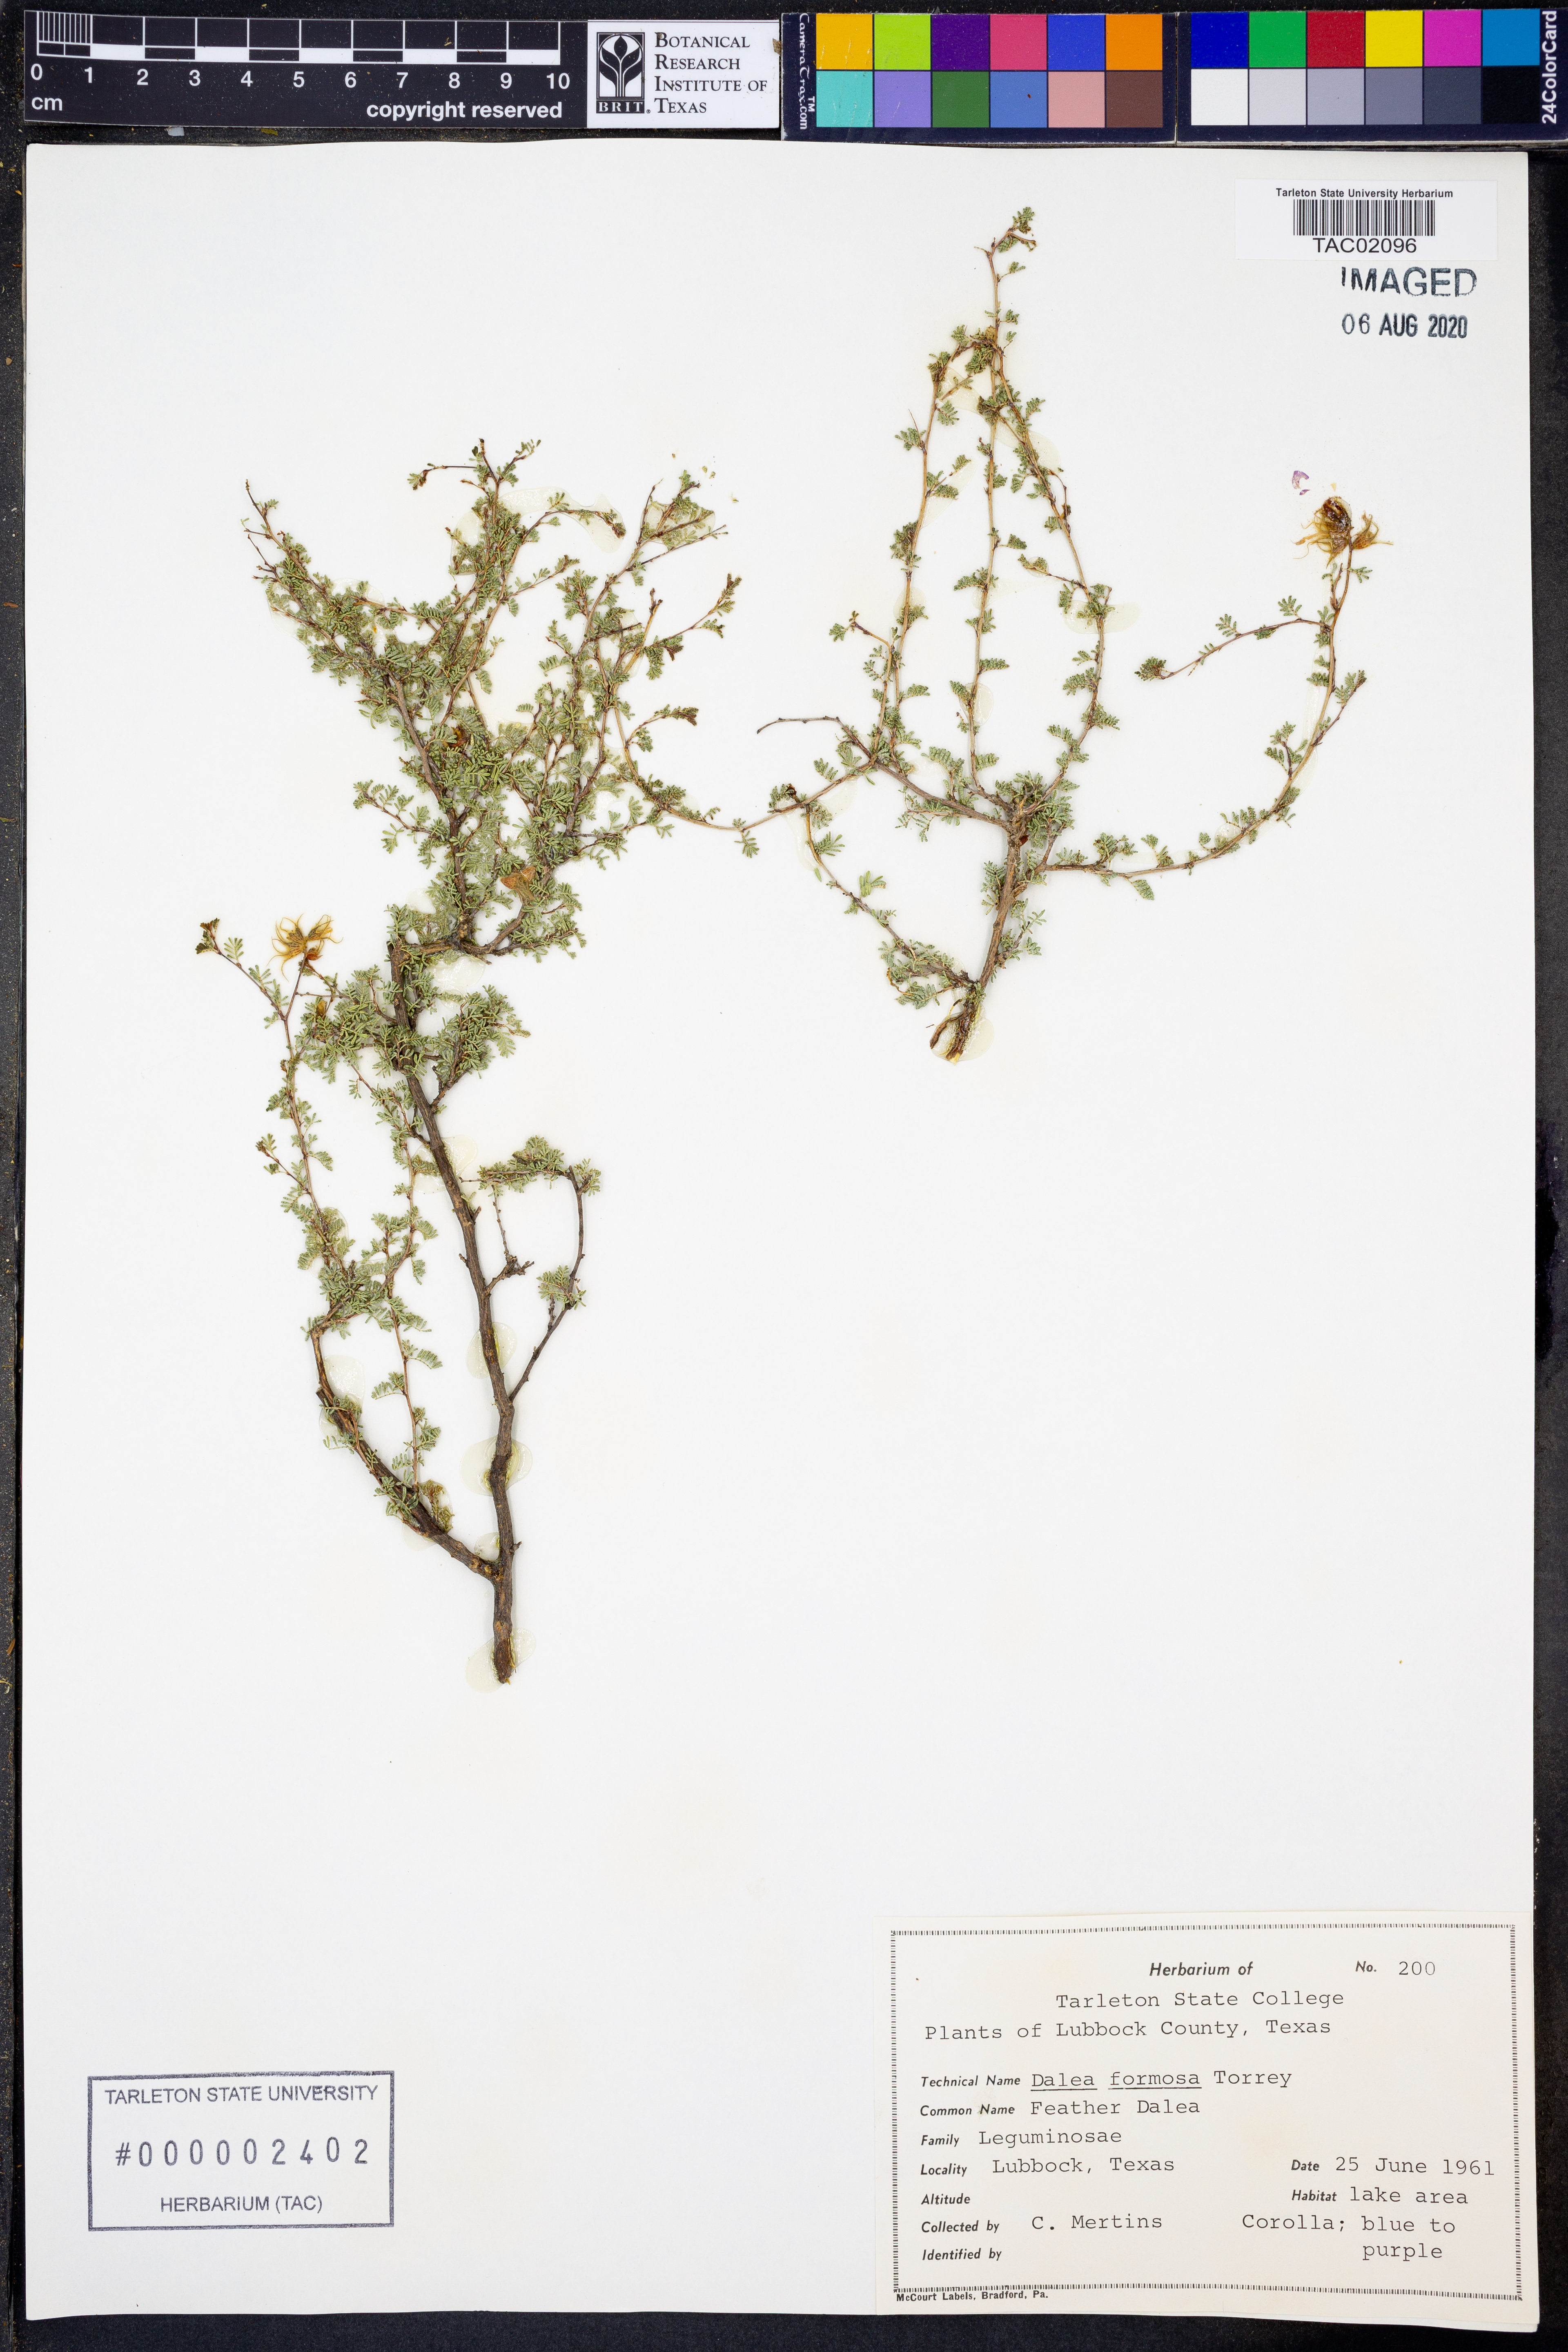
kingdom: Plantae
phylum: Tracheophyta
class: Magnoliopsida
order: Fabales
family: Fabaceae
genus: Dalea
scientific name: Dalea formosa
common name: Feather-plume dalea
